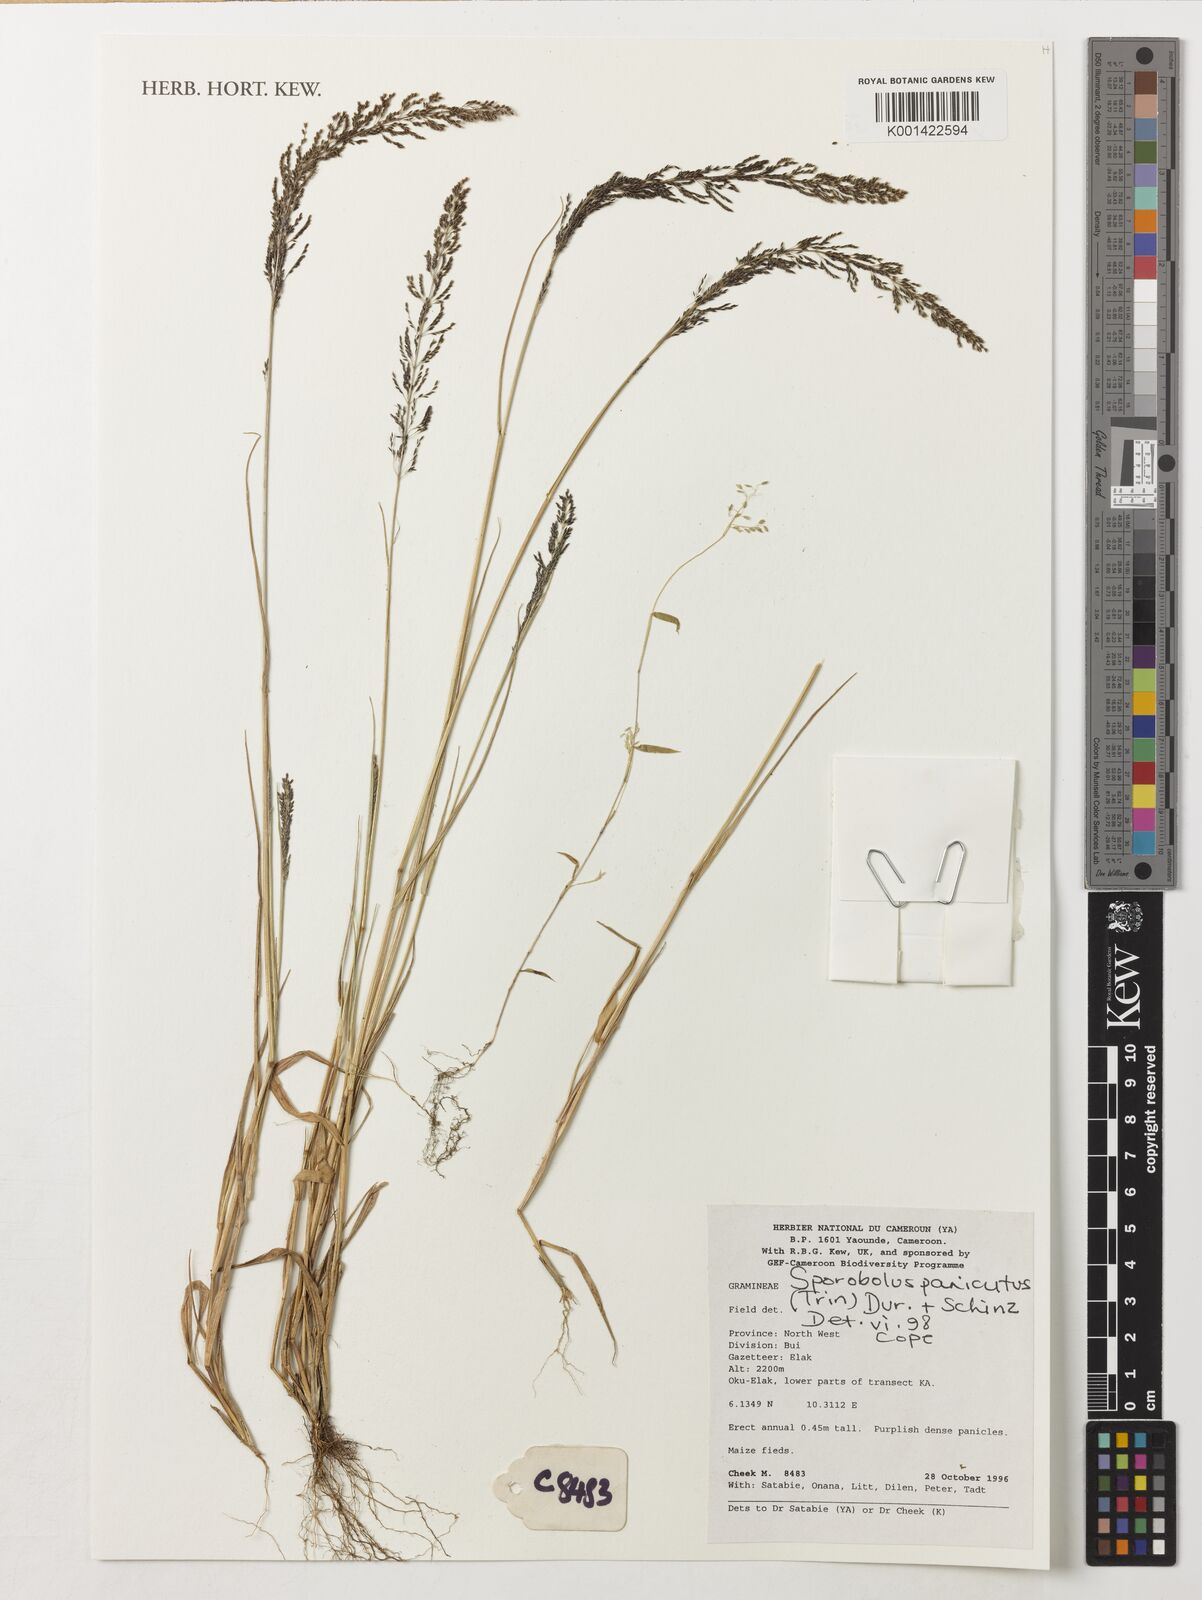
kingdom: Plantae
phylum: Tracheophyta
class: Liliopsida
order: Poales
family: Poaceae
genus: Sporobolus
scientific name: Sporobolus paniculatus
